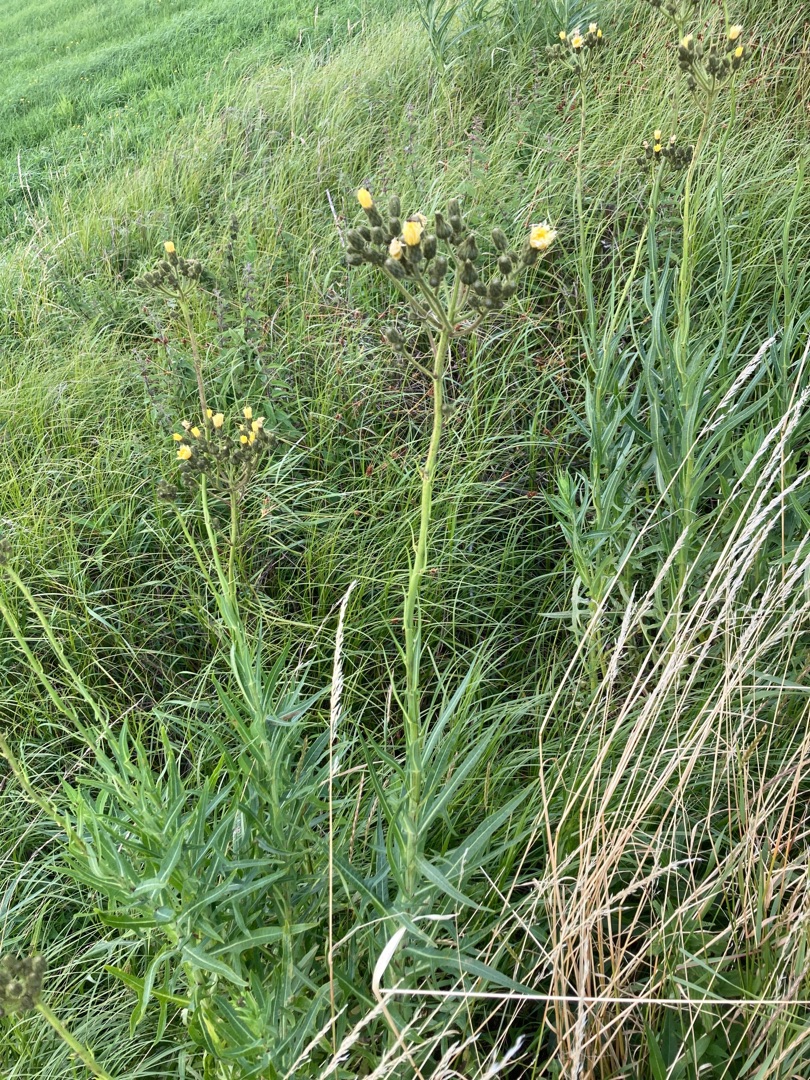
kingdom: Plantae
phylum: Tracheophyta
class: Magnoliopsida
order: Asterales
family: Asteraceae
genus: Sonchus
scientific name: Sonchus palustris
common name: Kær-svinemælk
